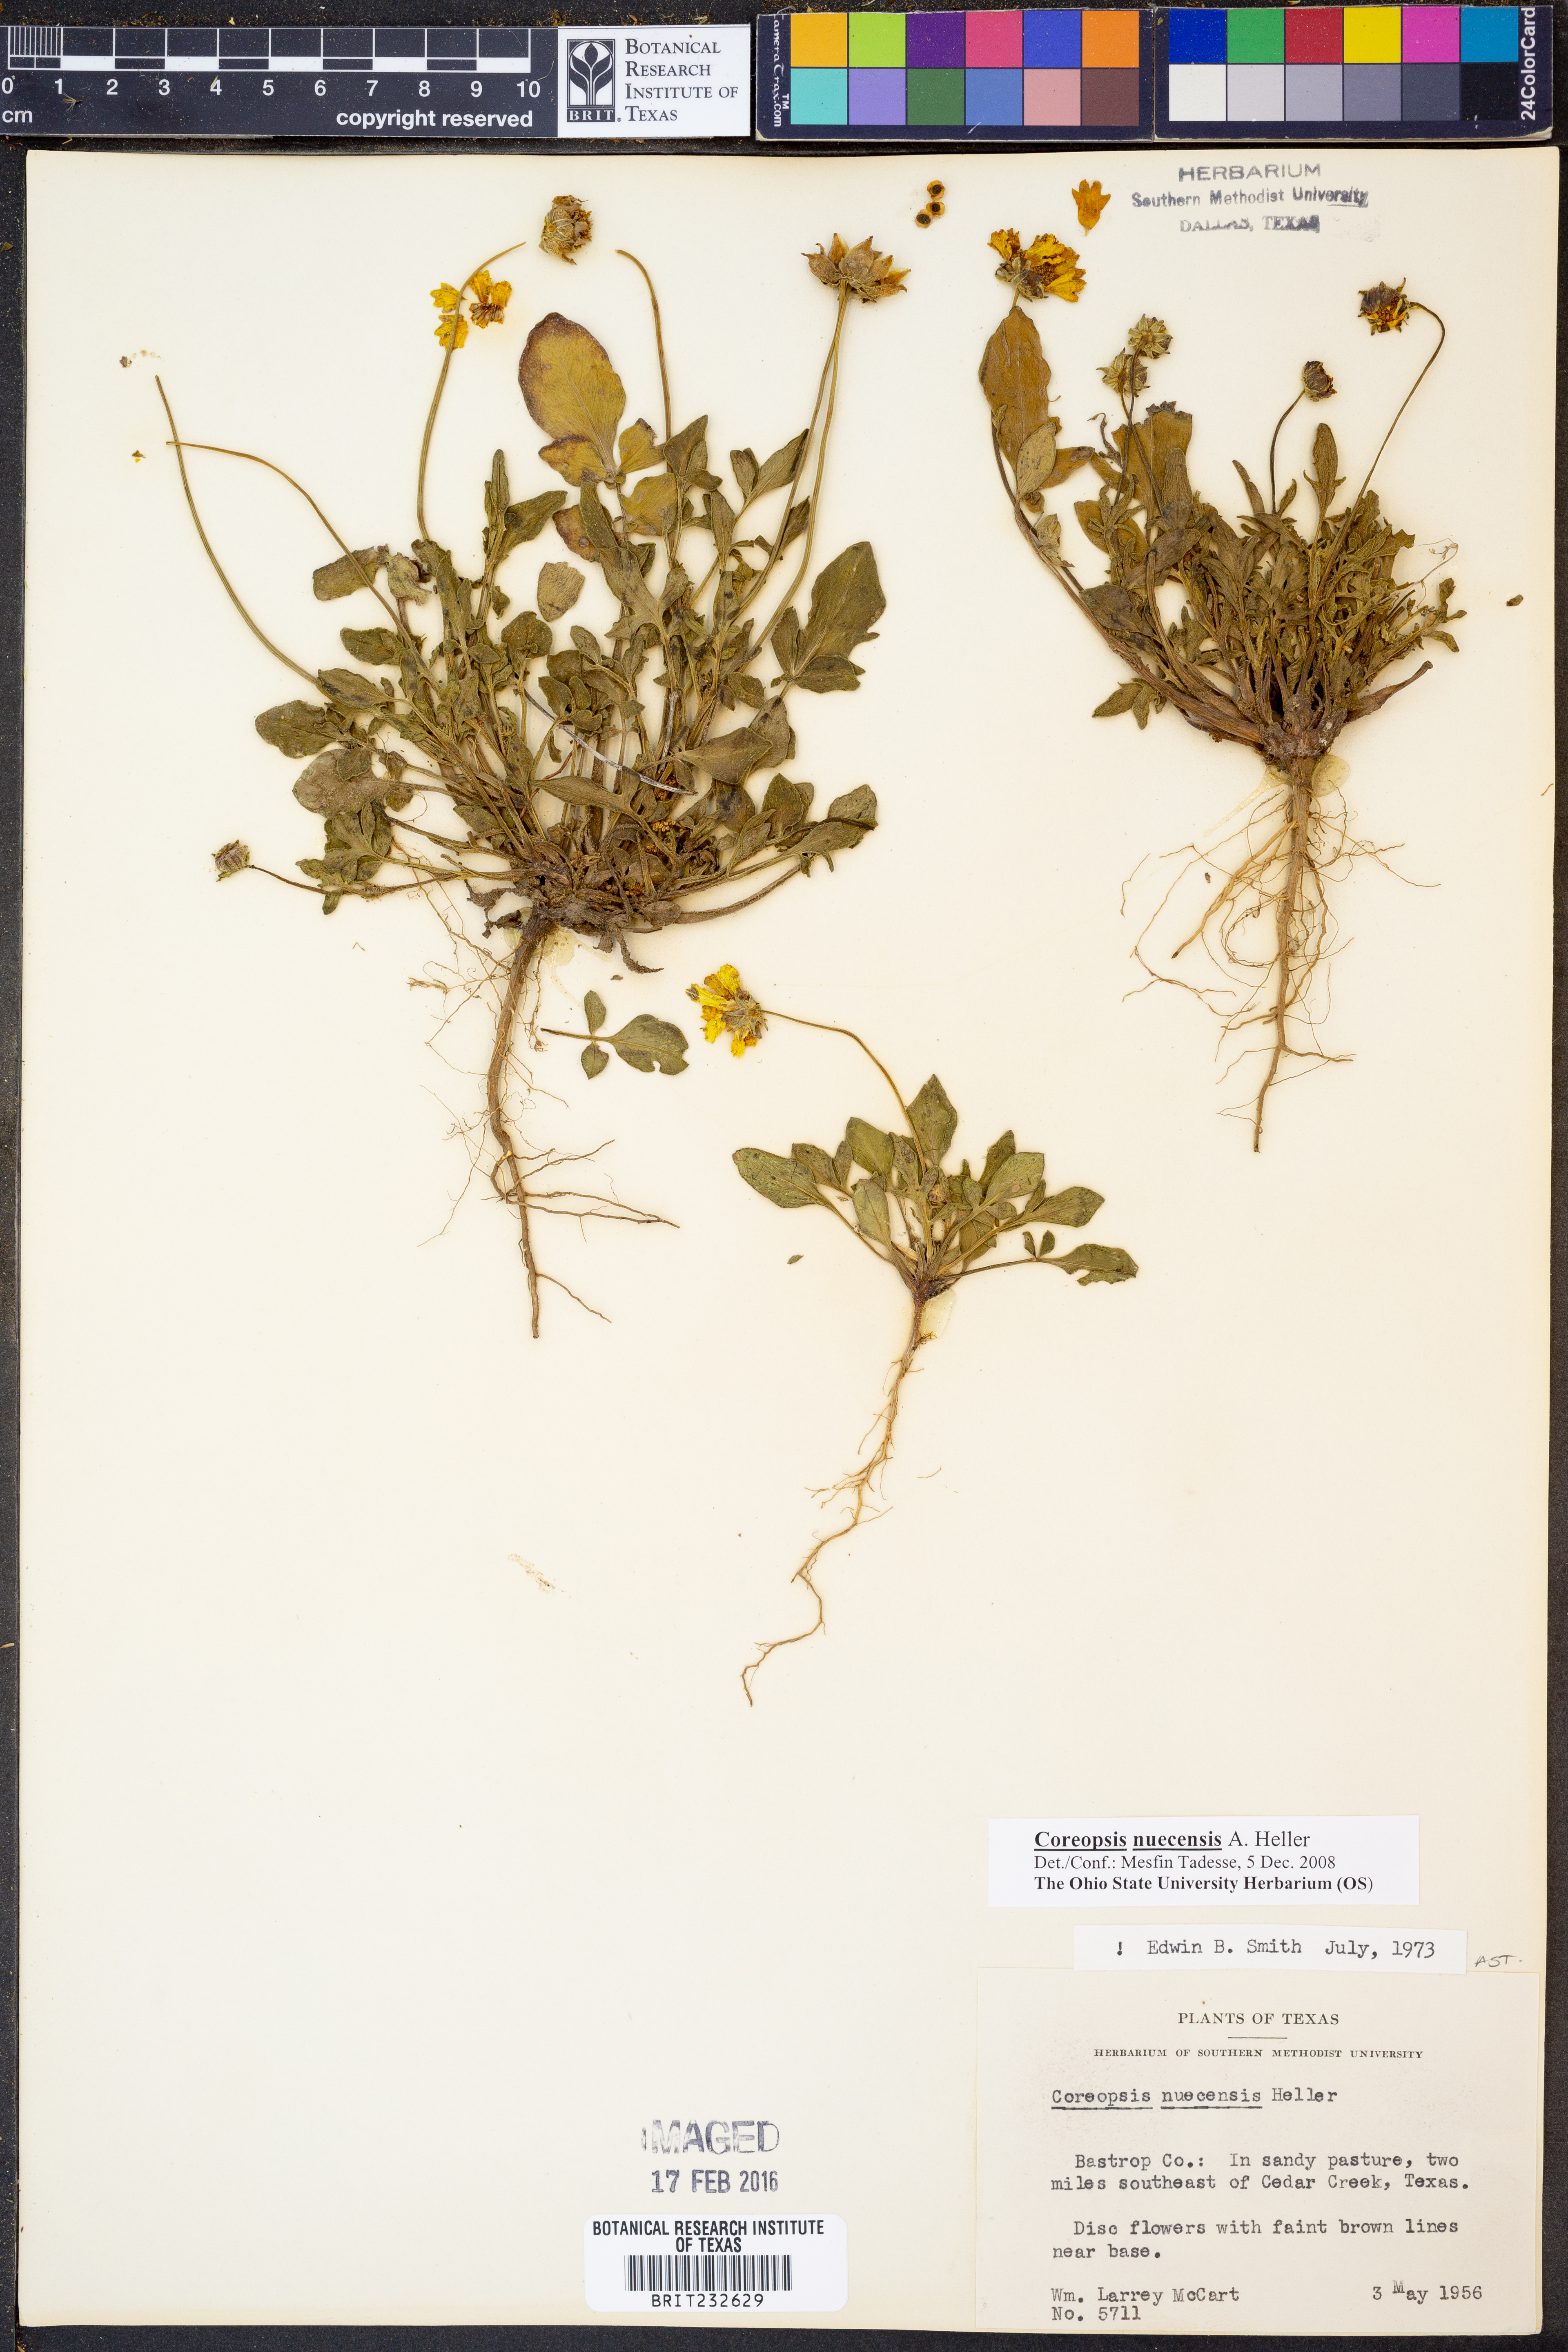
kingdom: Plantae
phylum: Tracheophyta
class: Magnoliopsida
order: Asterales
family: Asteraceae
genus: Coreopsis
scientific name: Coreopsis nuecensis
